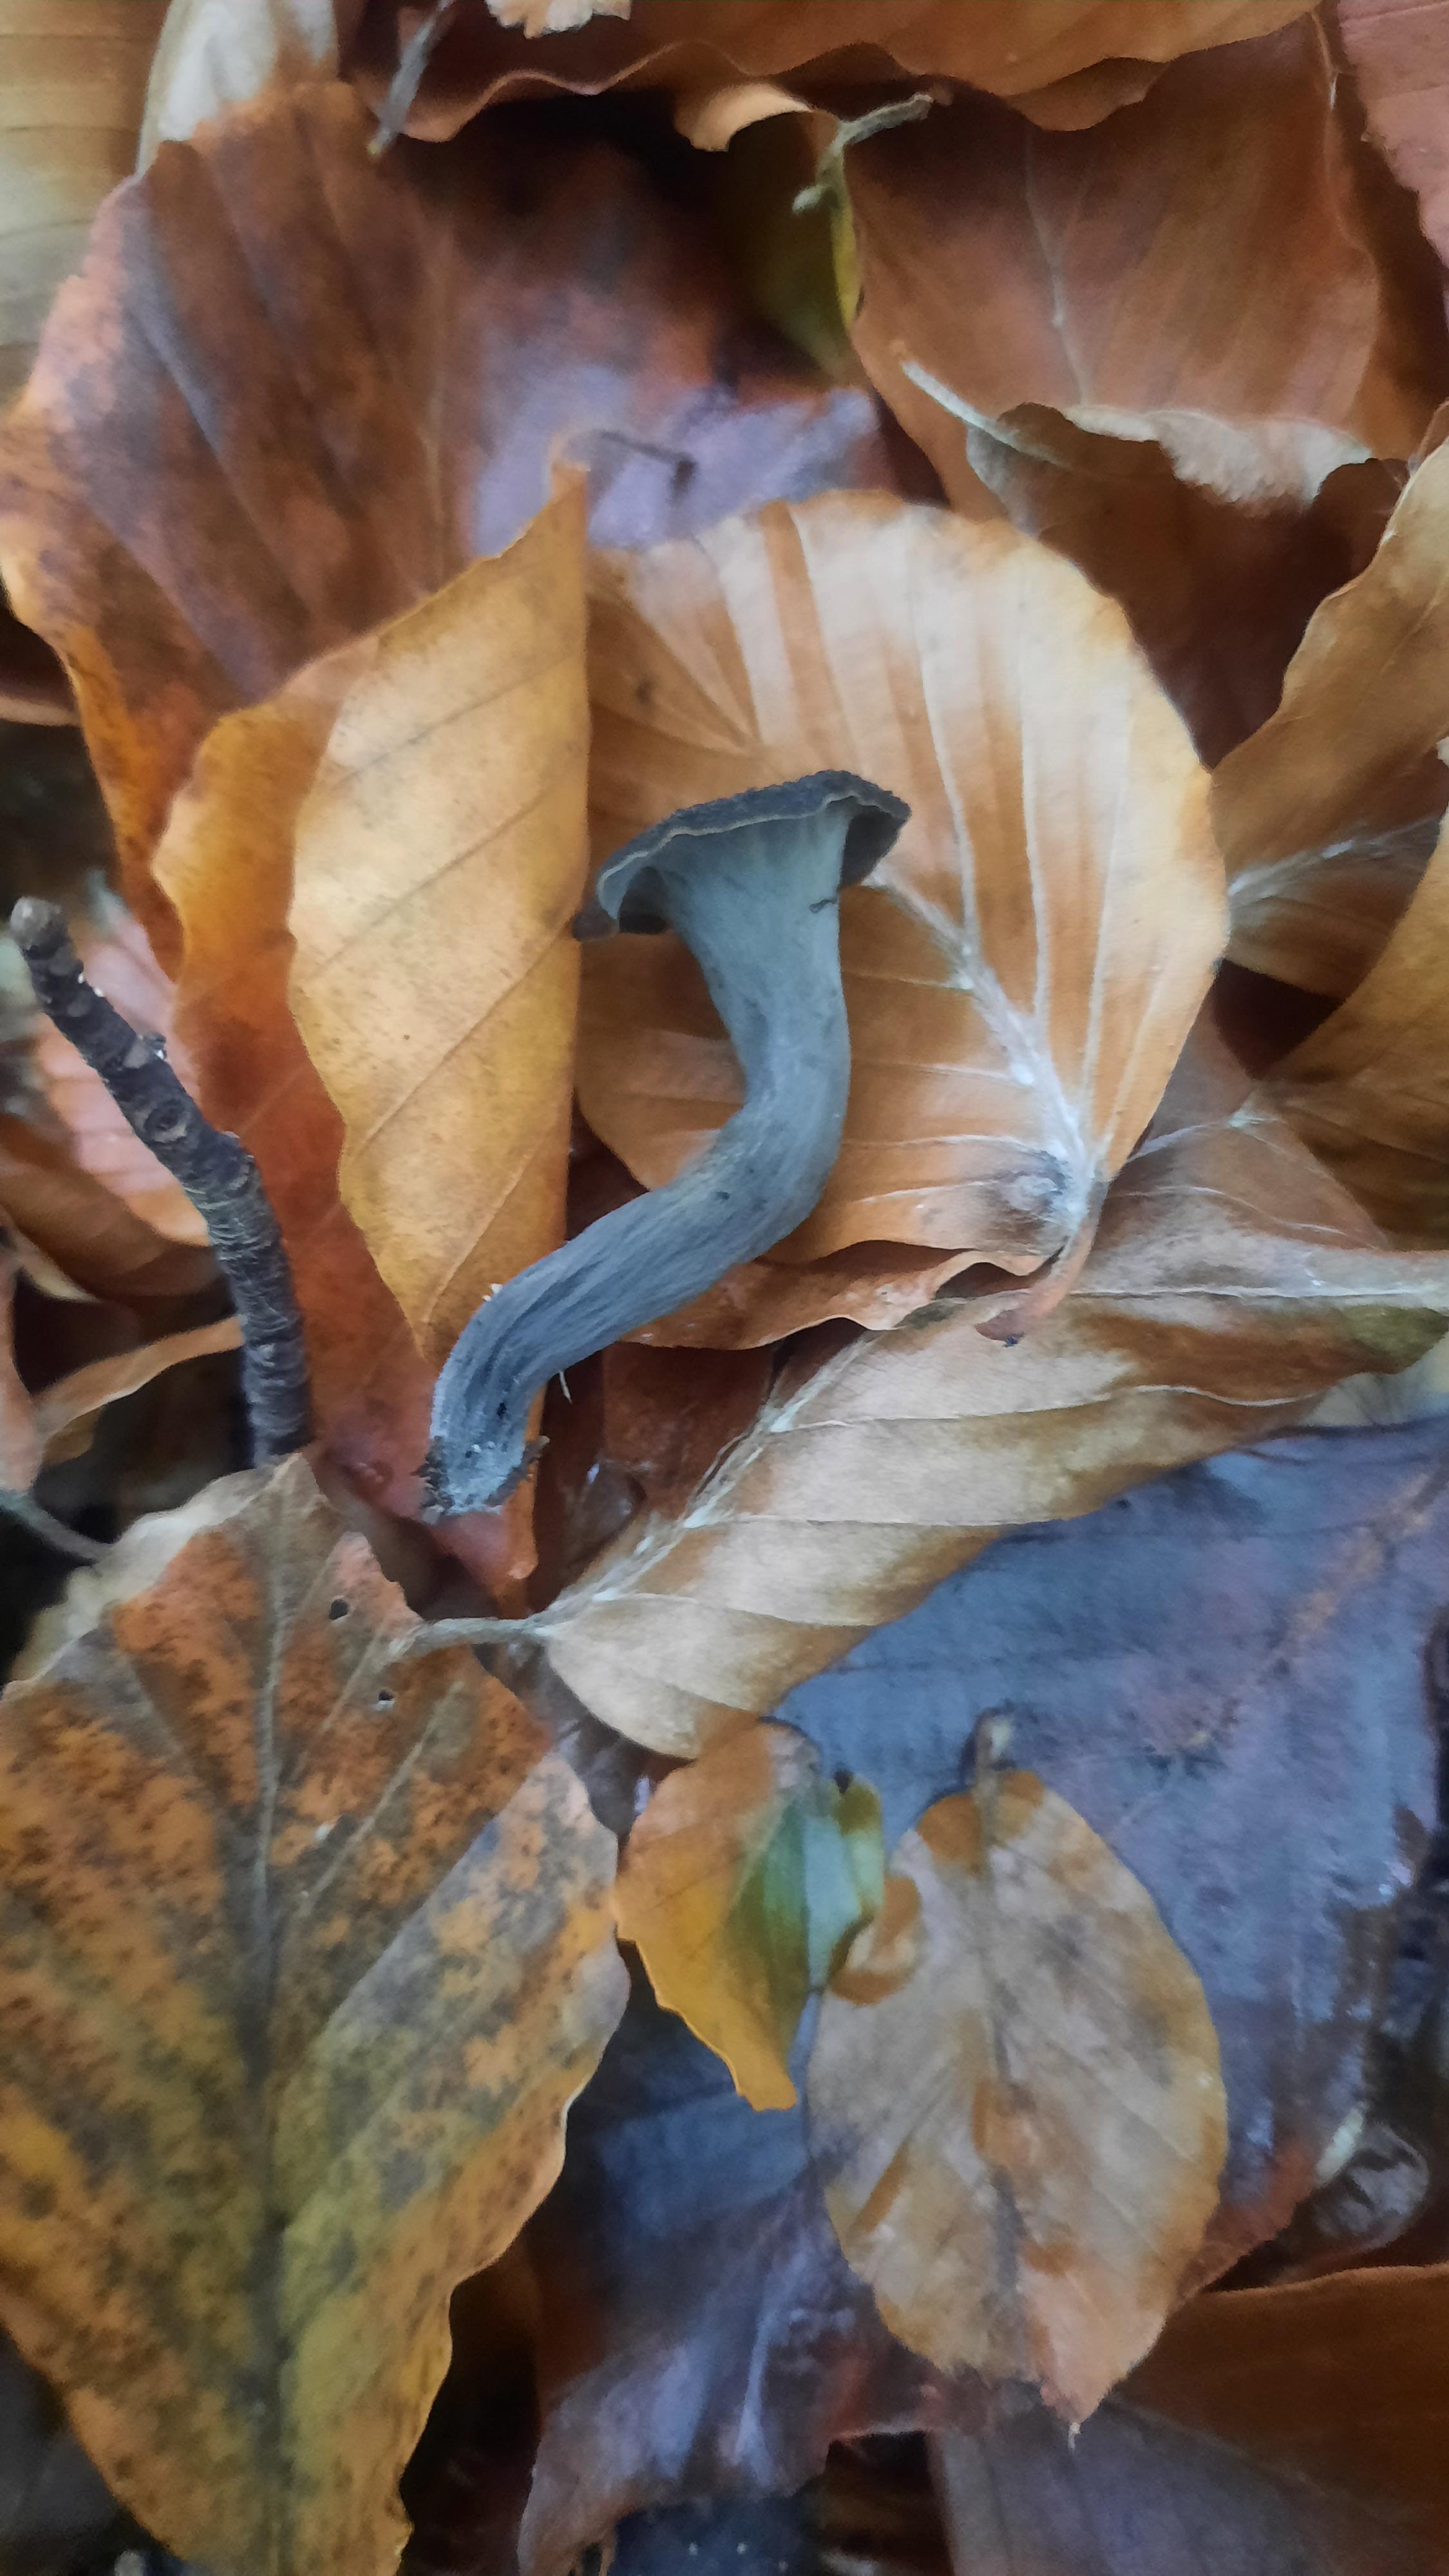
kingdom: Fungi
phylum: Basidiomycota
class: Agaricomycetes
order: Cantharellales
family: Hydnaceae
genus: Craterellus
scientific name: Craterellus cornucopioides
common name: trompetsvamp
